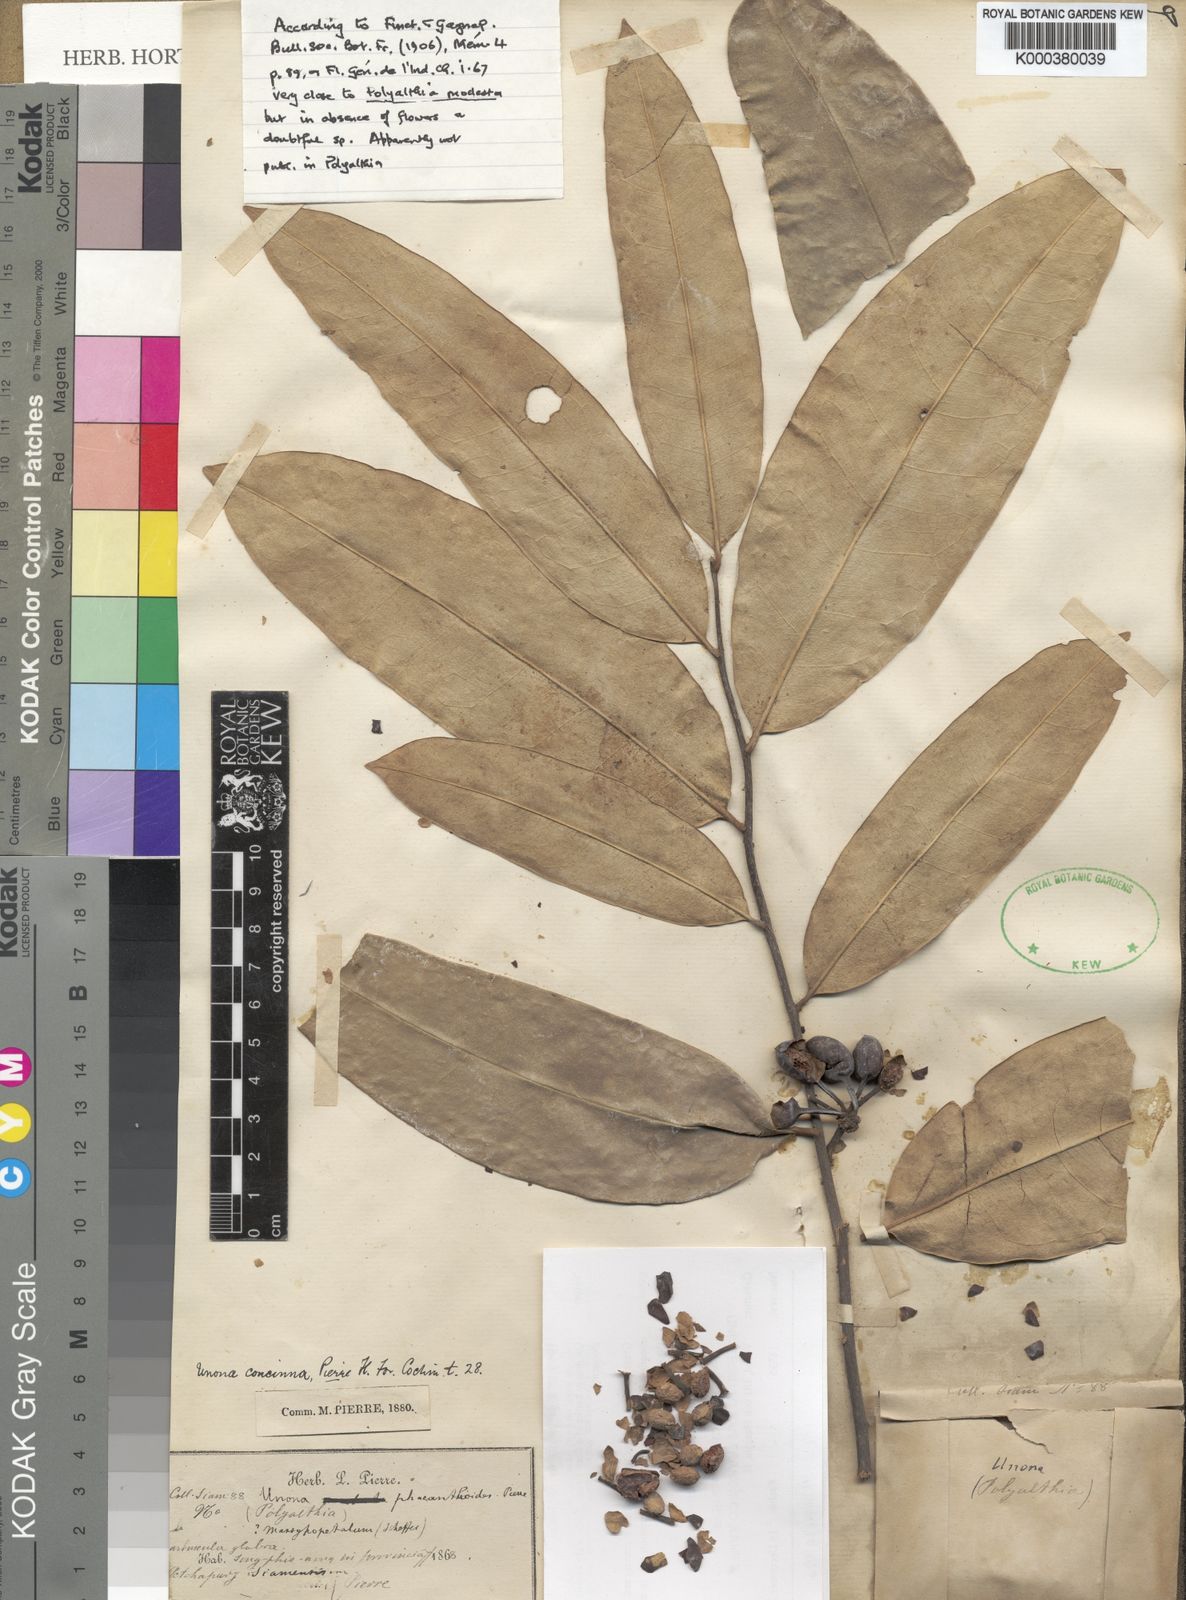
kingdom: Plantae
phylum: Tracheophyta
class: Magnoliopsida
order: Magnoliales
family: Annonaceae
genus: Polyalthia
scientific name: Polyalthia
